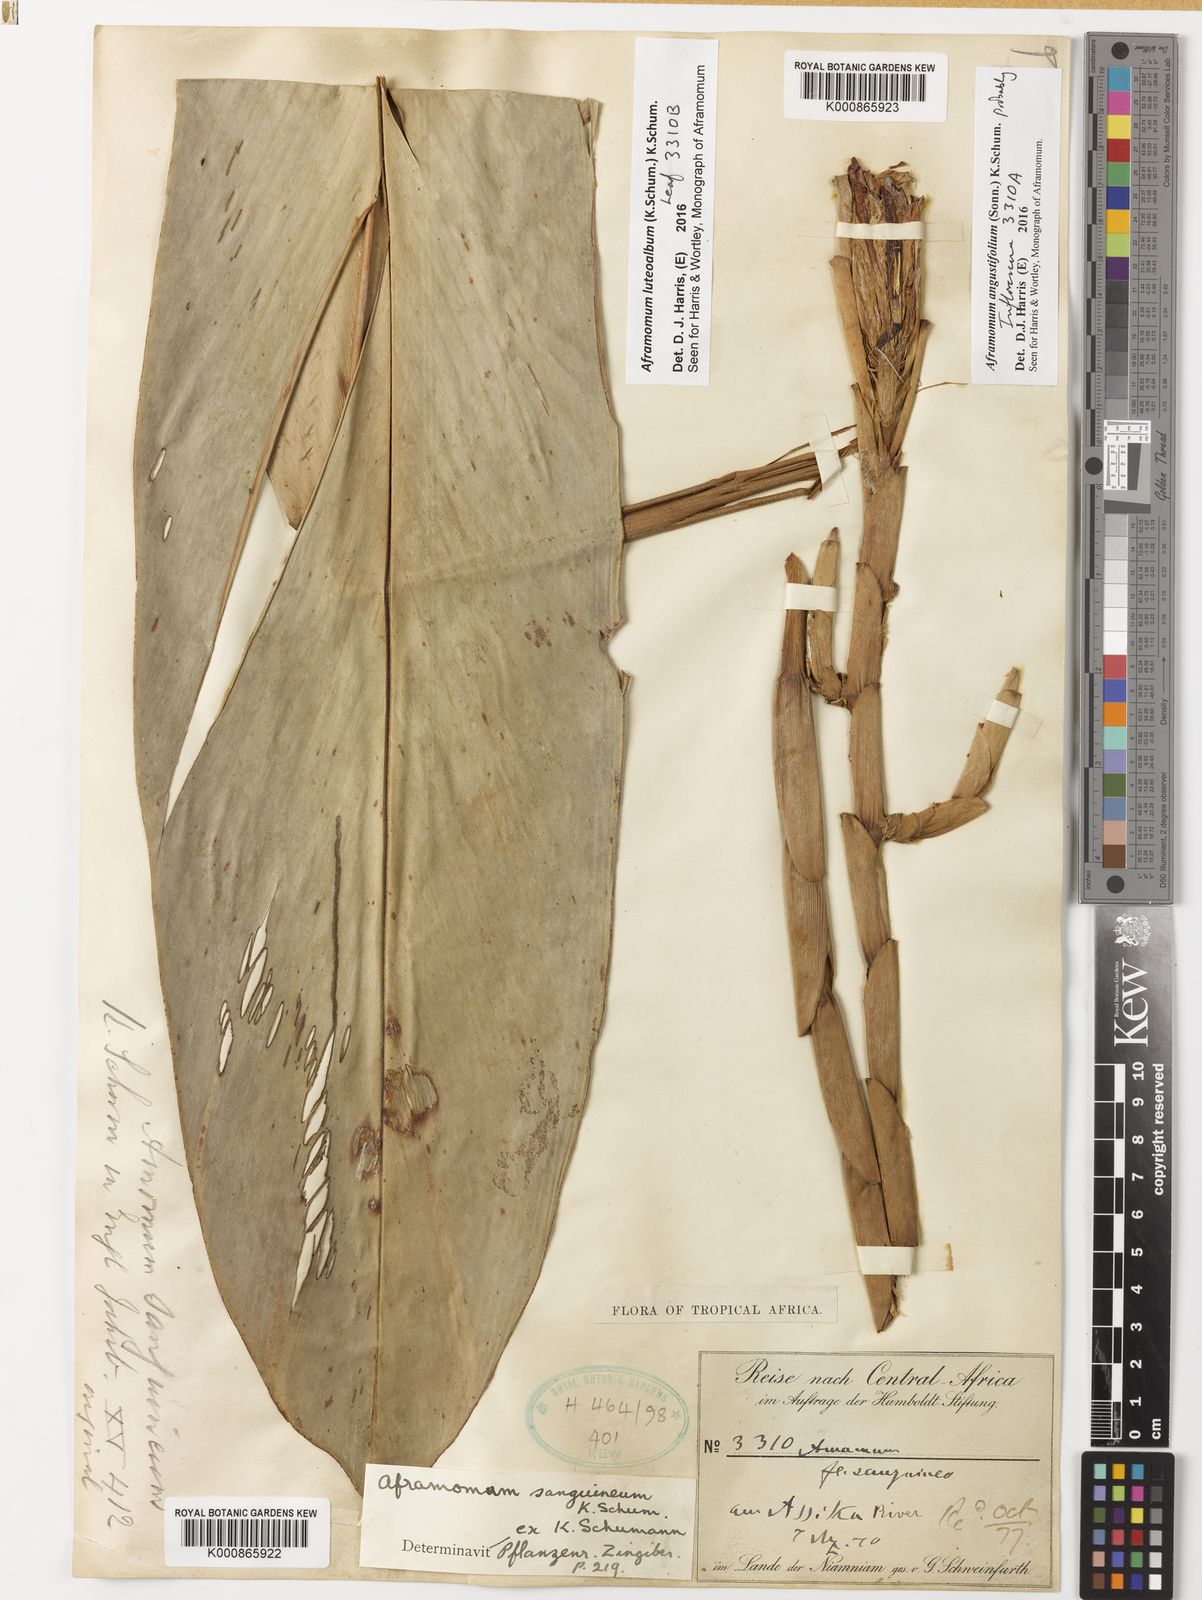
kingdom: Plantae
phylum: Tracheophyta
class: Liliopsida
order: Zingiberales
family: Zingiberaceae
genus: Aframomum
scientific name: Aframomum angustifolium
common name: Guinea grains
